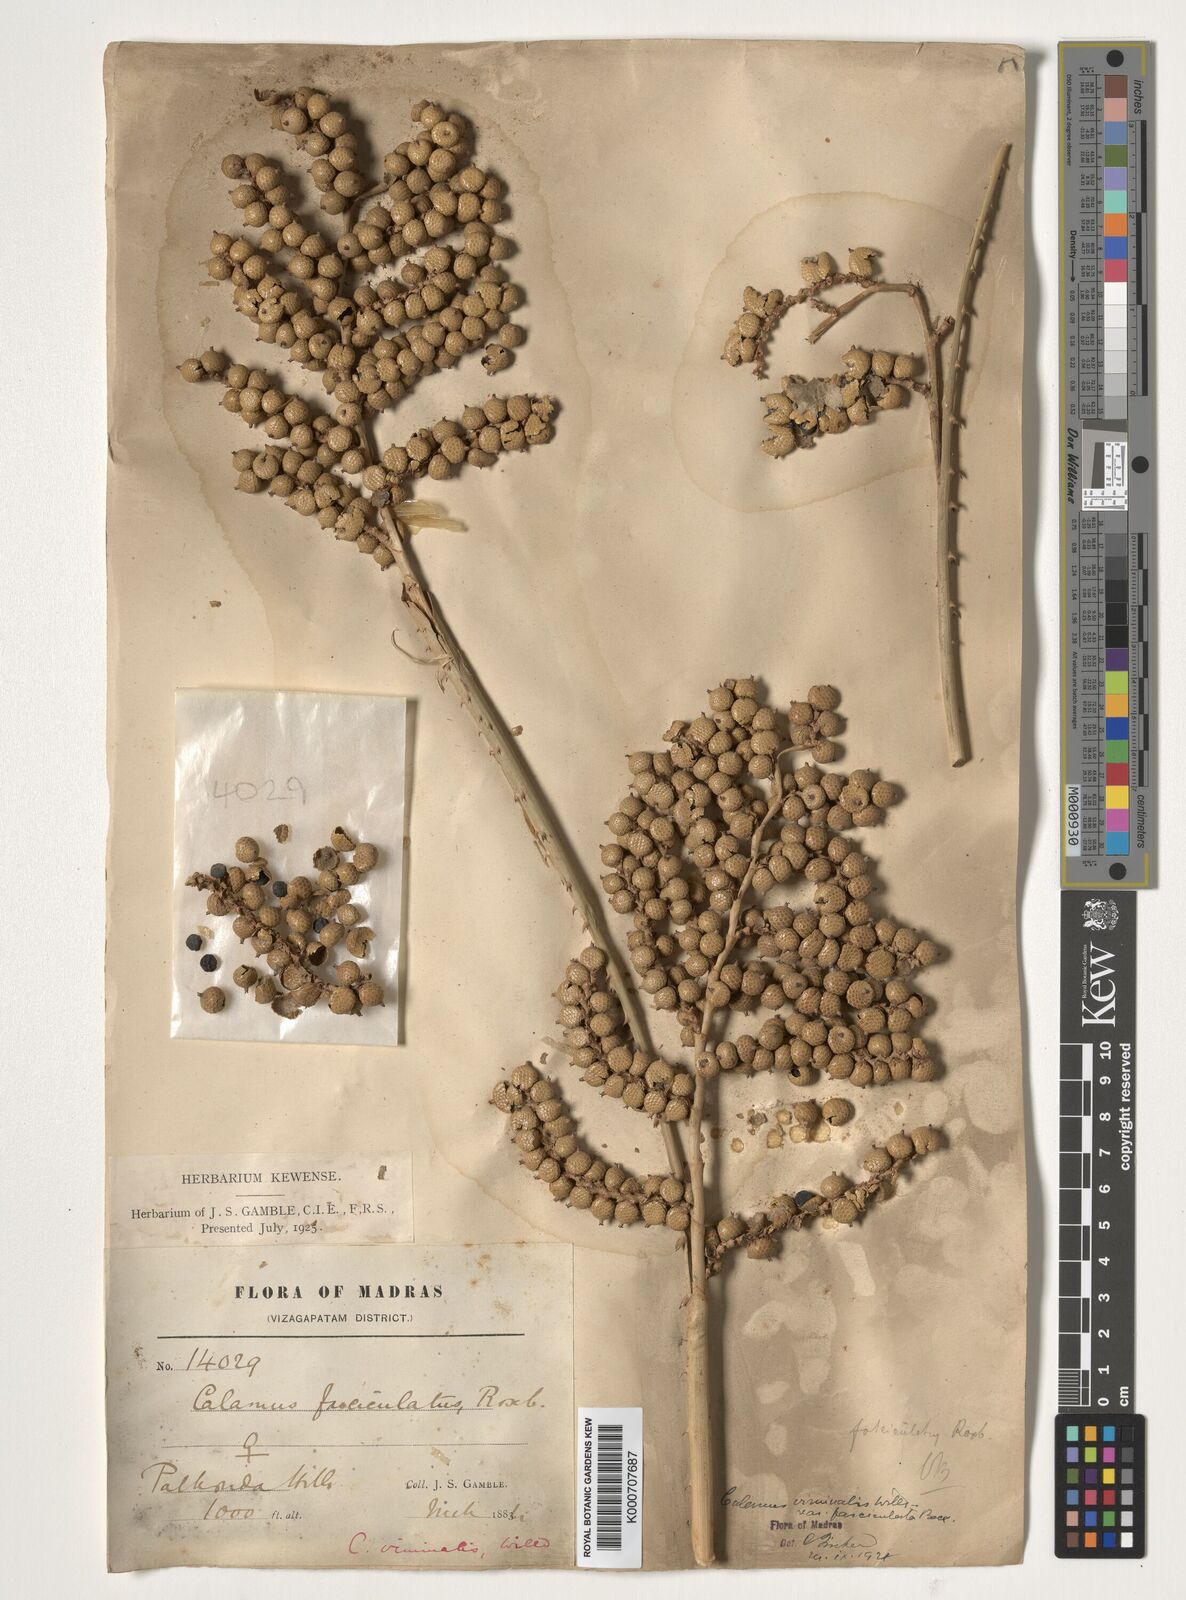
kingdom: Plantae
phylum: Tracheophyta
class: Liliopsida
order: Arecales
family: Arecaceae
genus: Calamus
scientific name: Calamus viminalis
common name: Osier-like rattan palm
